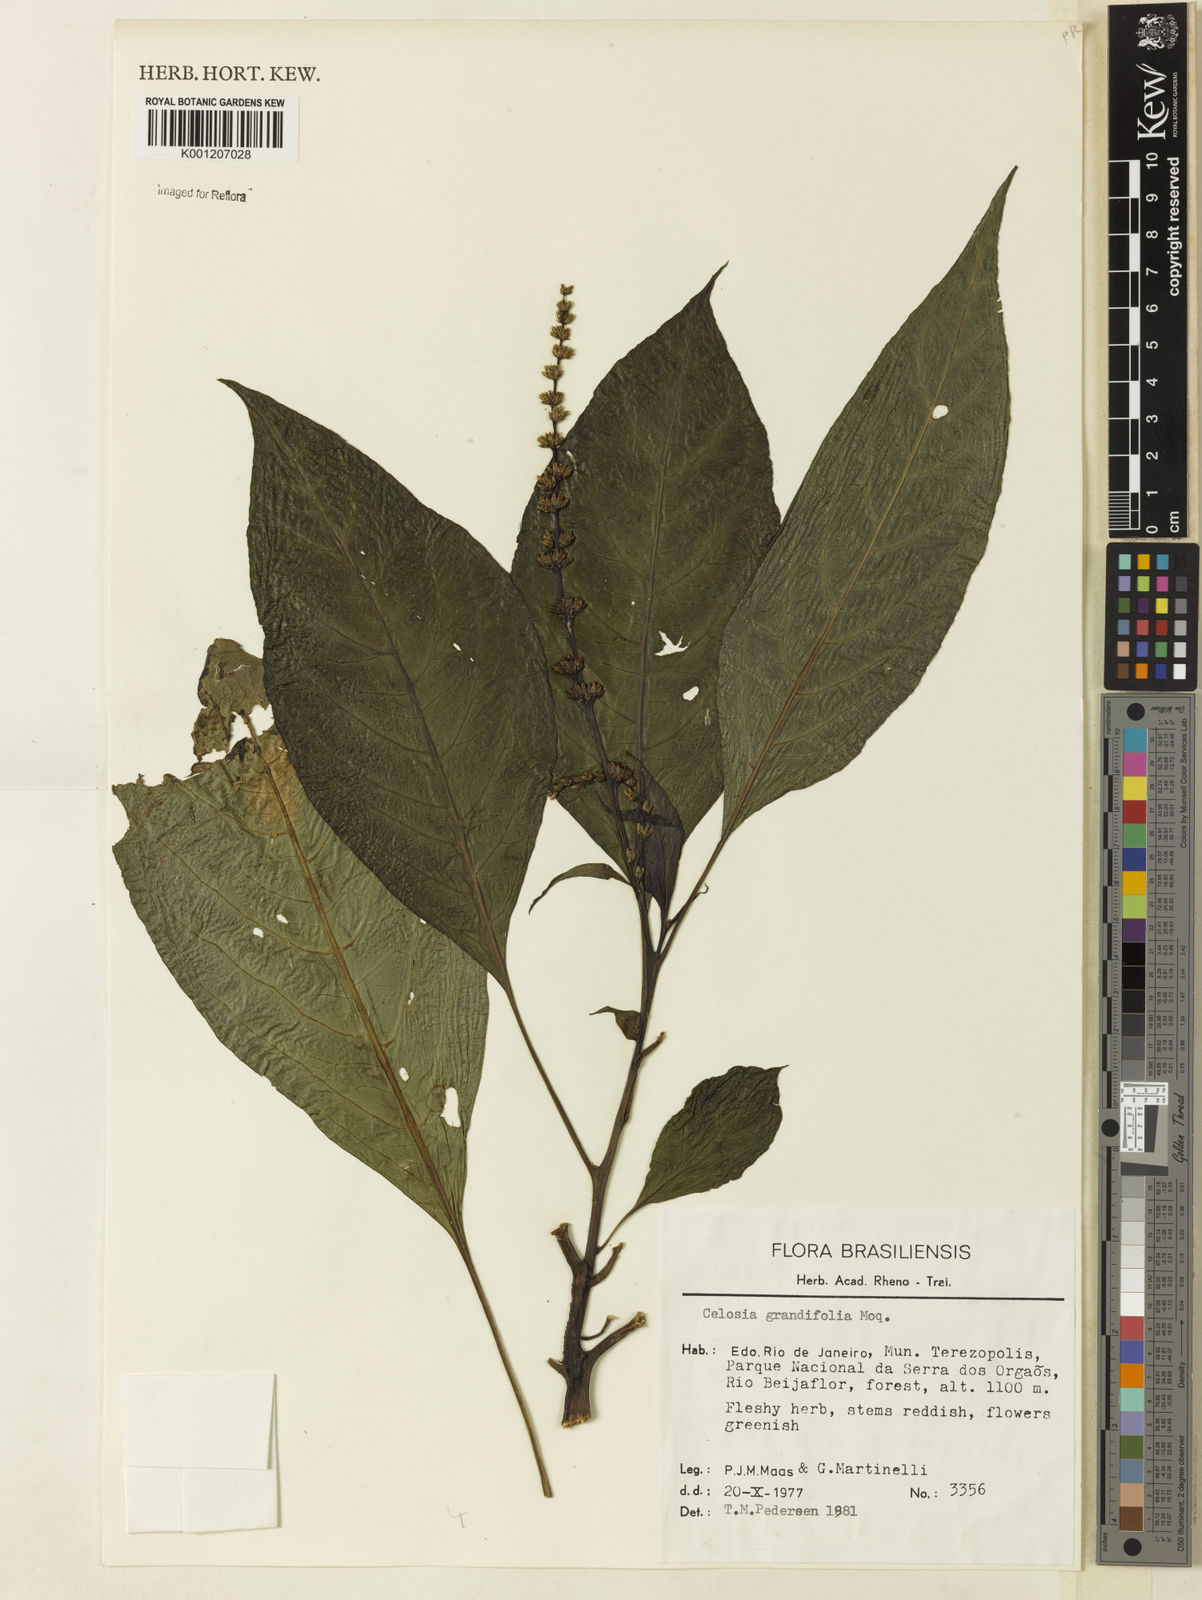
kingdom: Plantae
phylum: Tracheophyta
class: Magnoliopsida
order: Caryophyllales
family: Amaranthaceae
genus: Celosia
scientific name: Celosia grandifolia
